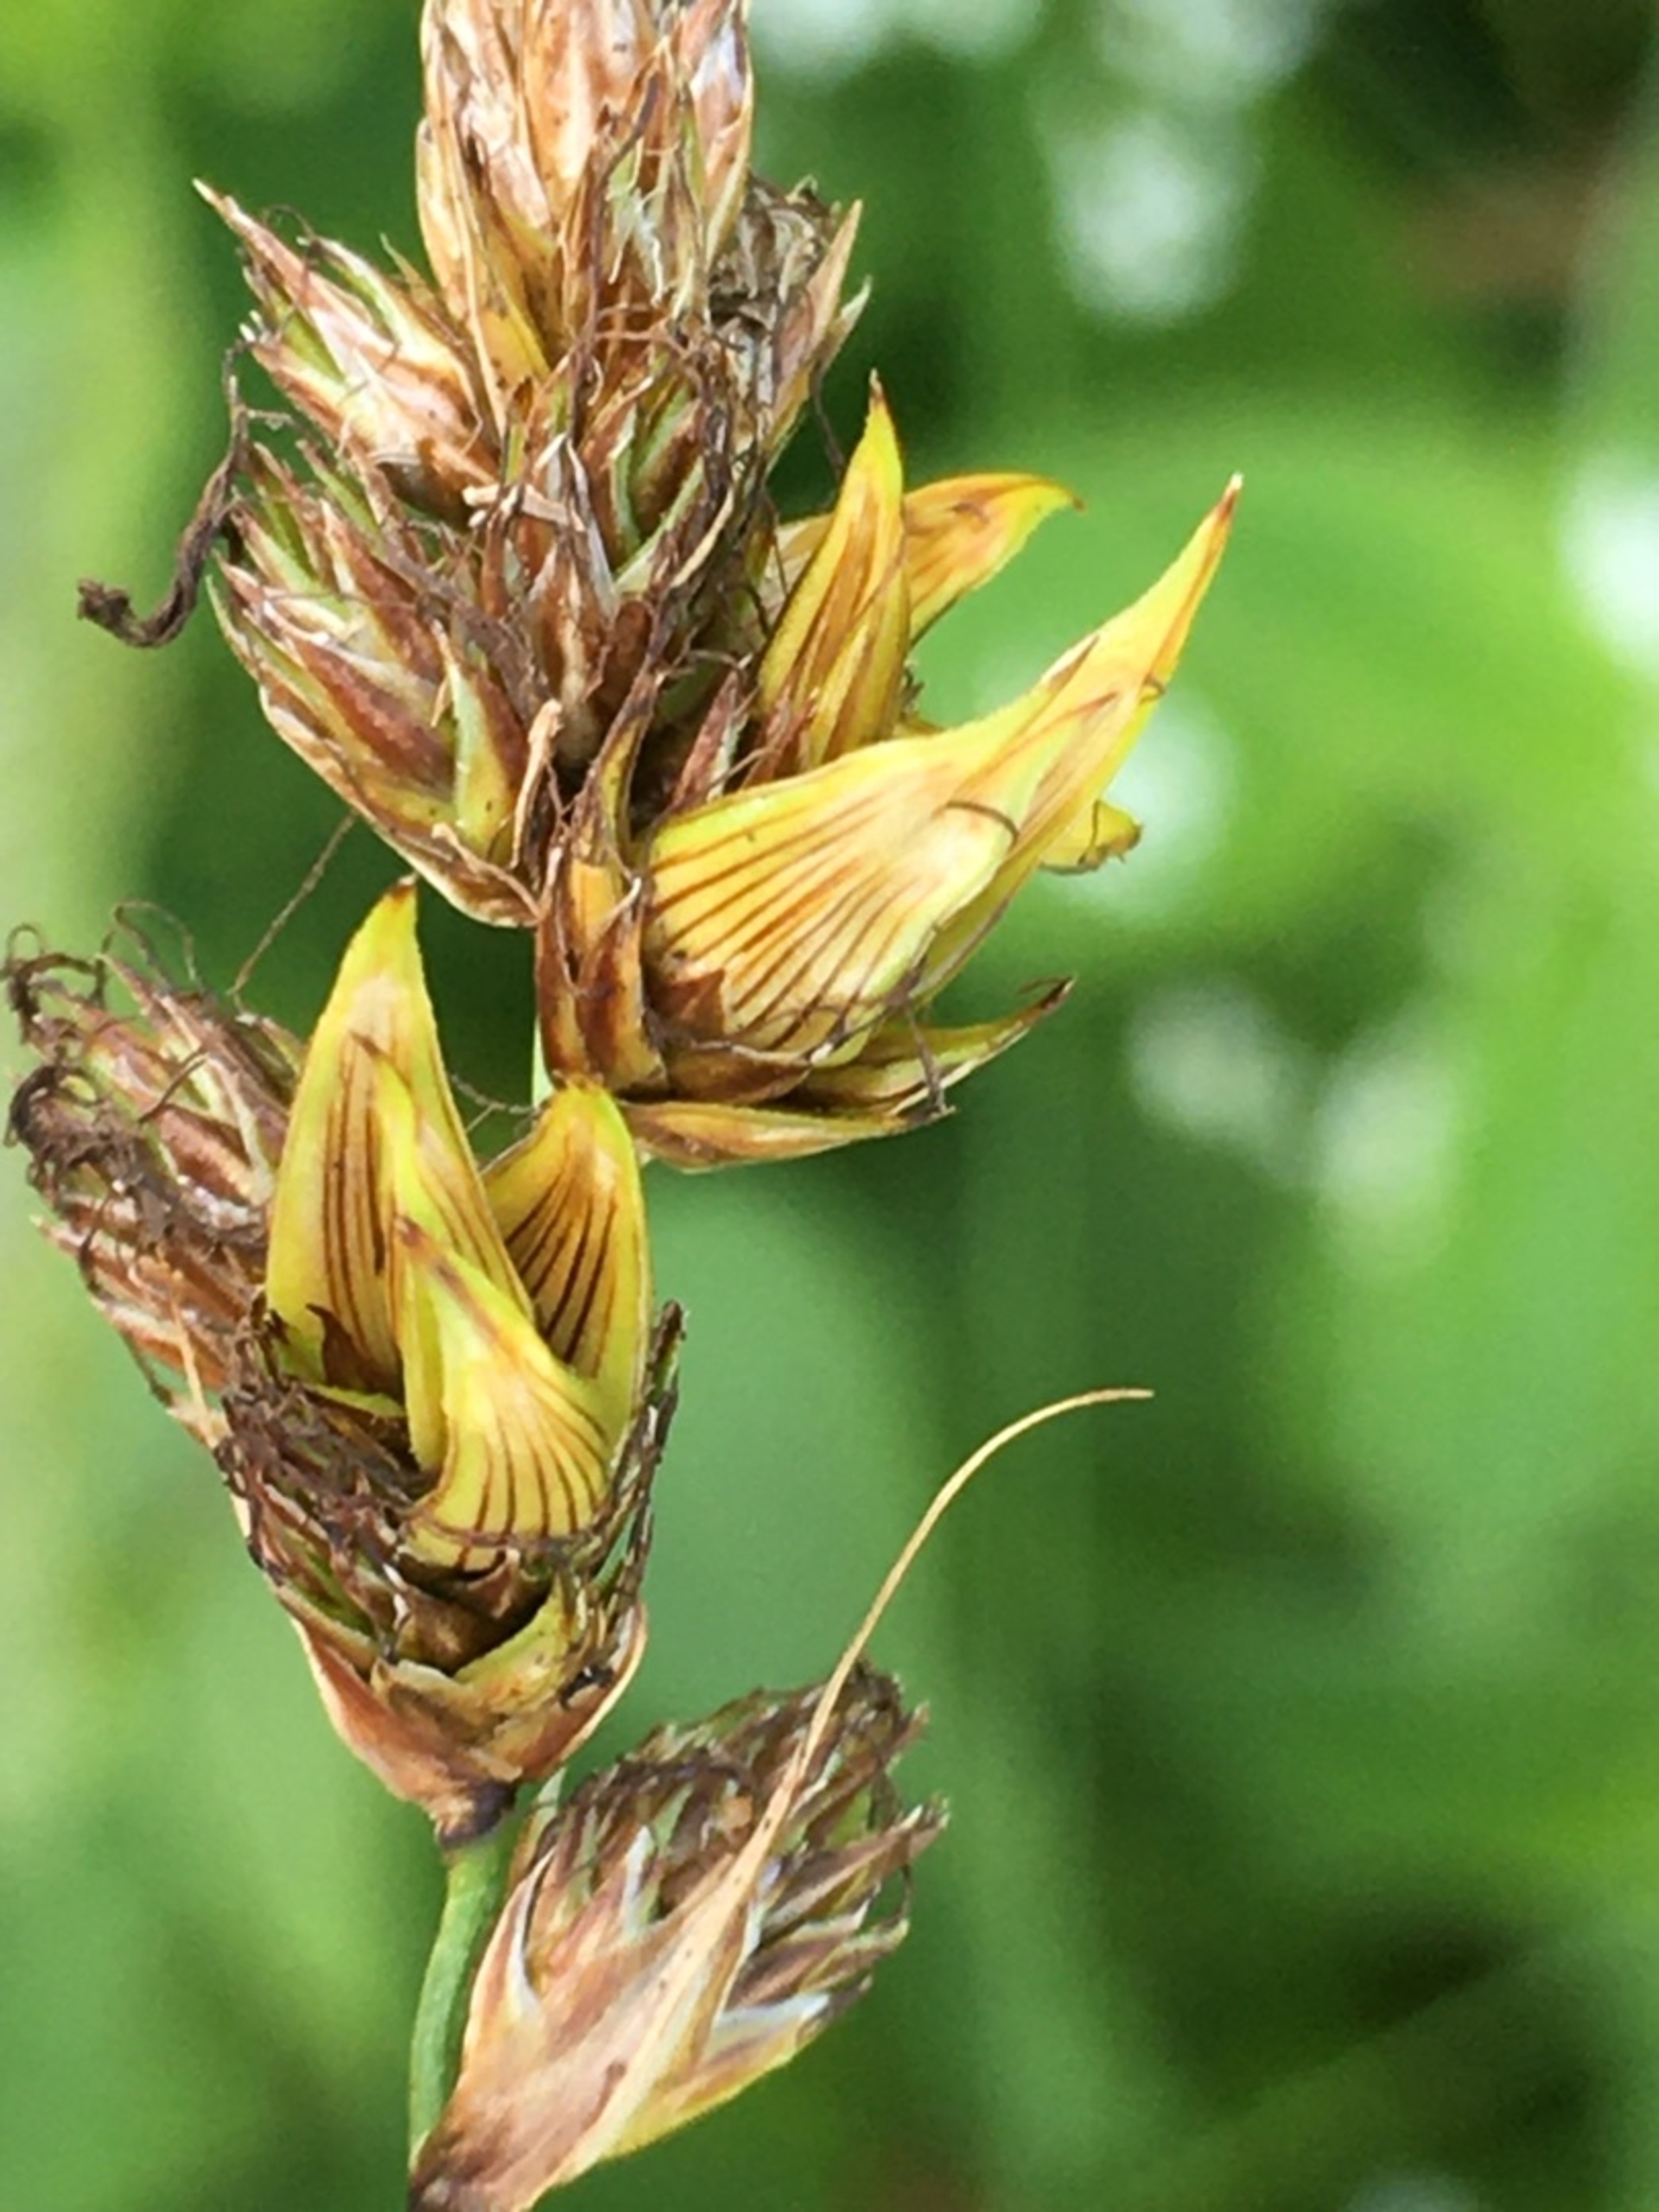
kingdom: Animalia
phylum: Arthropoda
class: Insecta
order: Diptera
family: Cecidomyiidae
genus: Wachtliella
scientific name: Wachtliella caricis
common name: Frugthylstergalmyg
